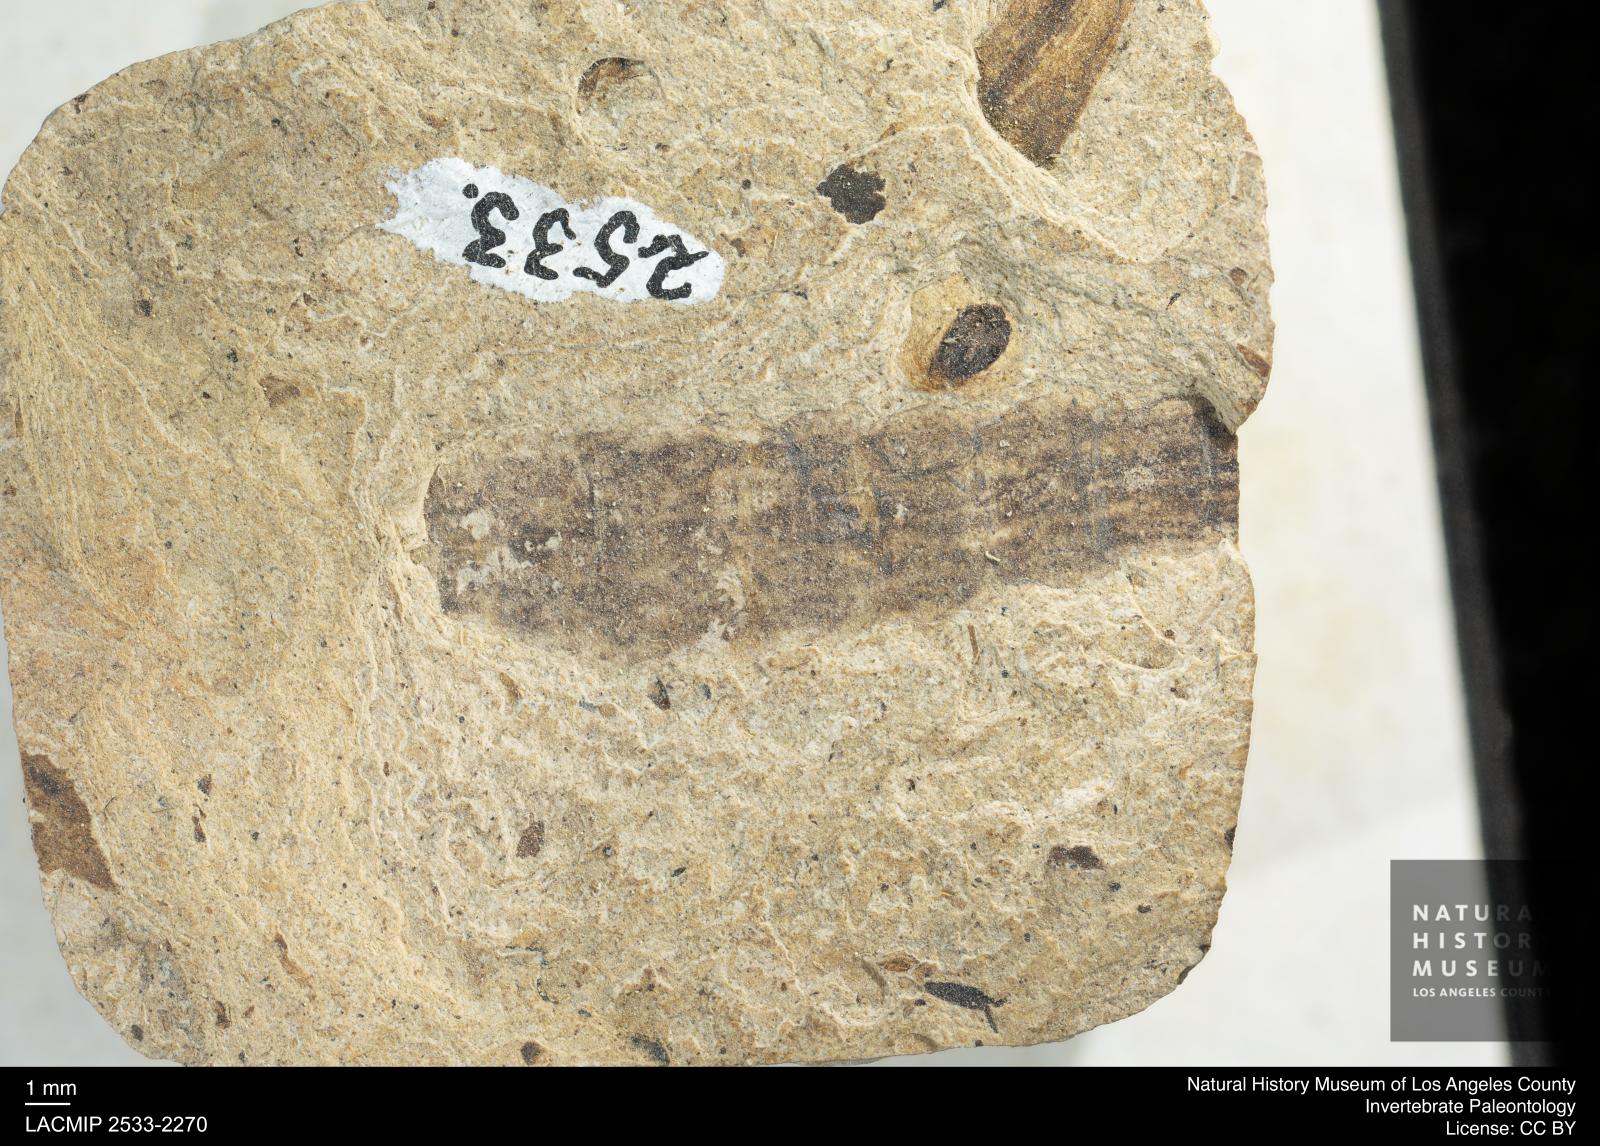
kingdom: Animalia
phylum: Arthropoda
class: Insecta
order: Diptera
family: Stratiomyidae
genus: Odontomyia
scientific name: Odontomyia
